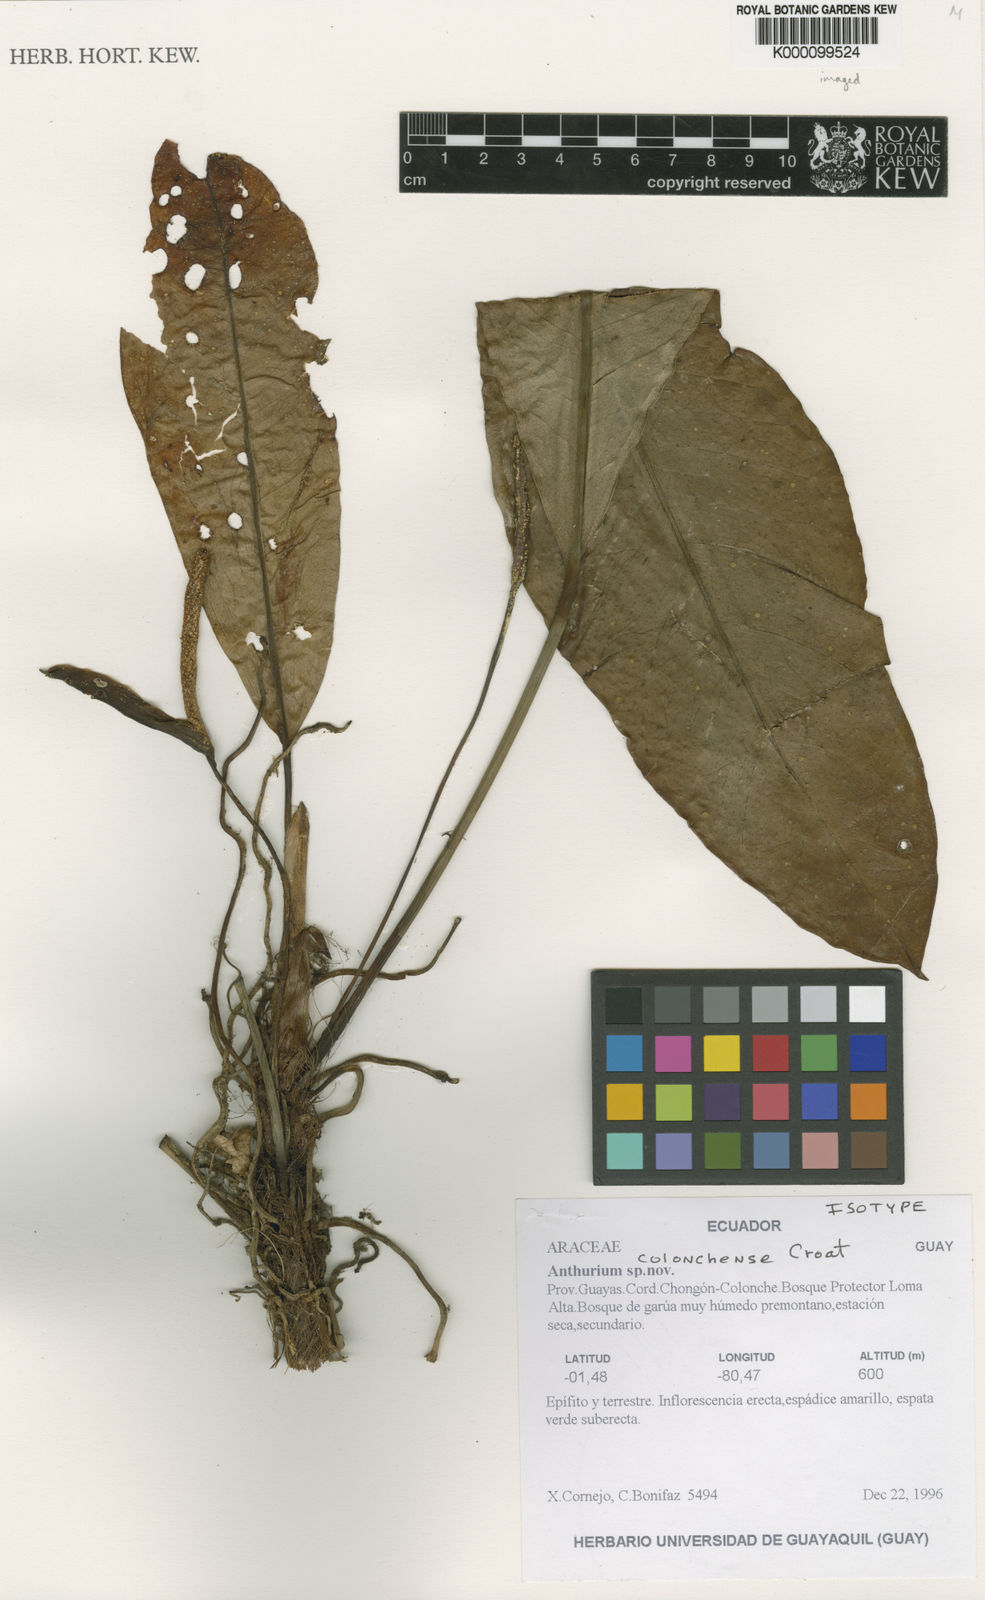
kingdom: Plantae
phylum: Tracheophyta
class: Liliopsida
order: Alismatales
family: Araceae
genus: Anthurium
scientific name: Anthurium colonchense
